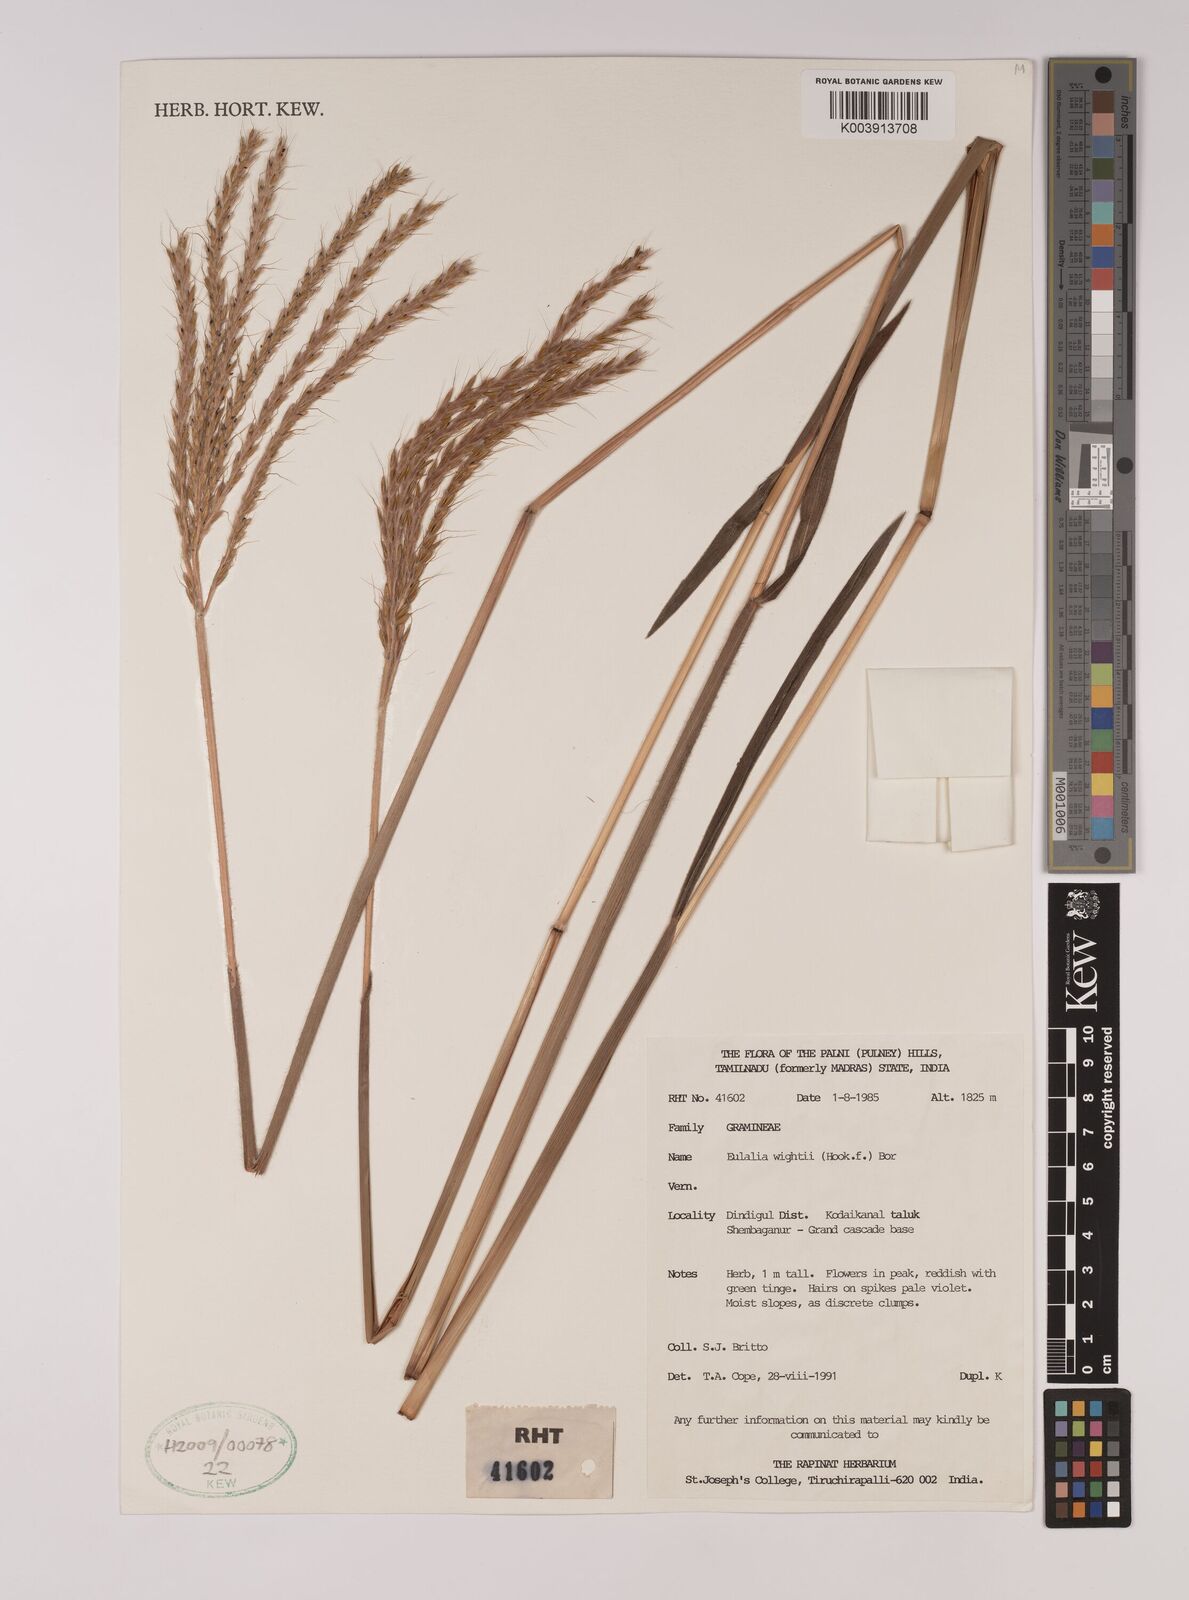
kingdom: Plantae
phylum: Tracheophyta
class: Liliopsida
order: Poales
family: Poaceae
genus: Eulalia
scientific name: Eulalia villosa
